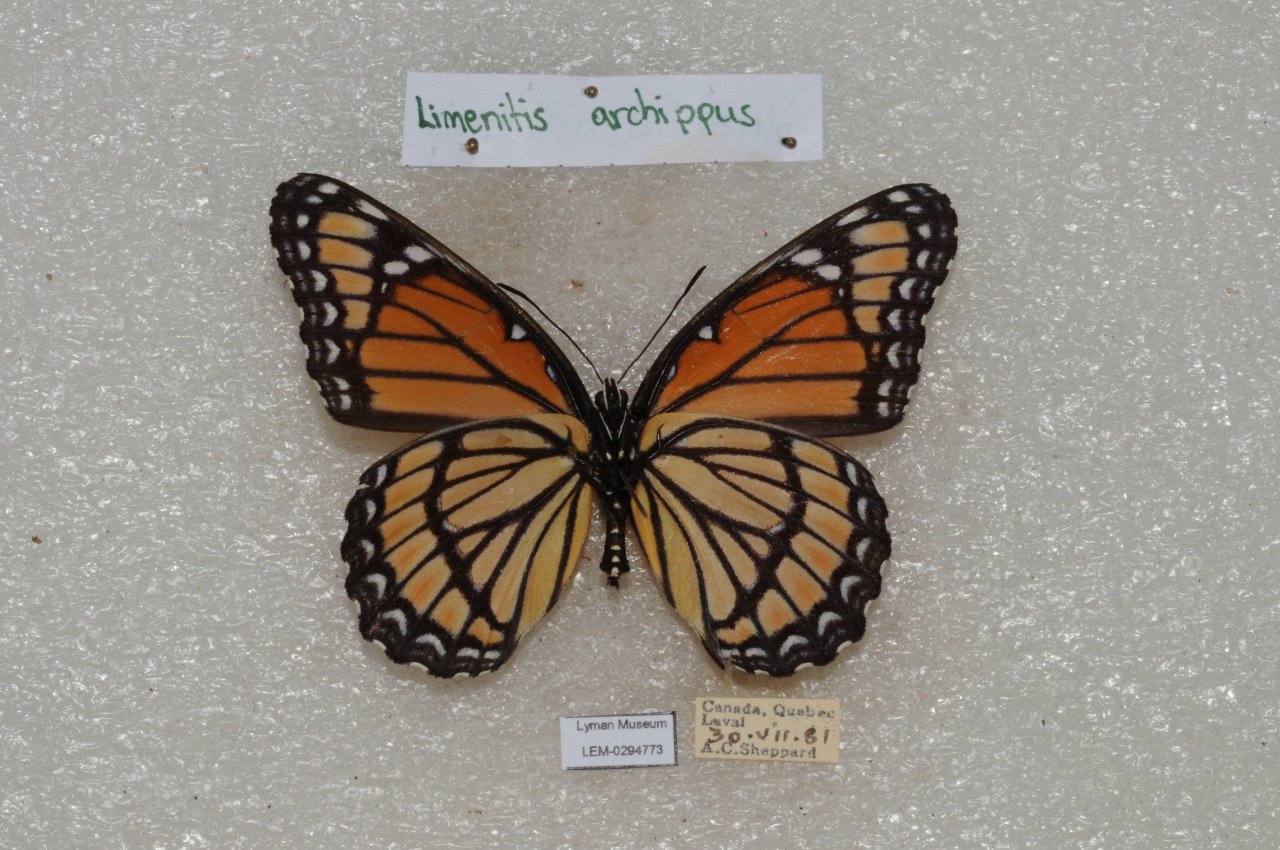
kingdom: Animalia
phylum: Arthropoda
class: Insecta
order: Lepidoptera
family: Nymphalidae
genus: Limenitis
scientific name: Limenitis archippus
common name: Viceroy
